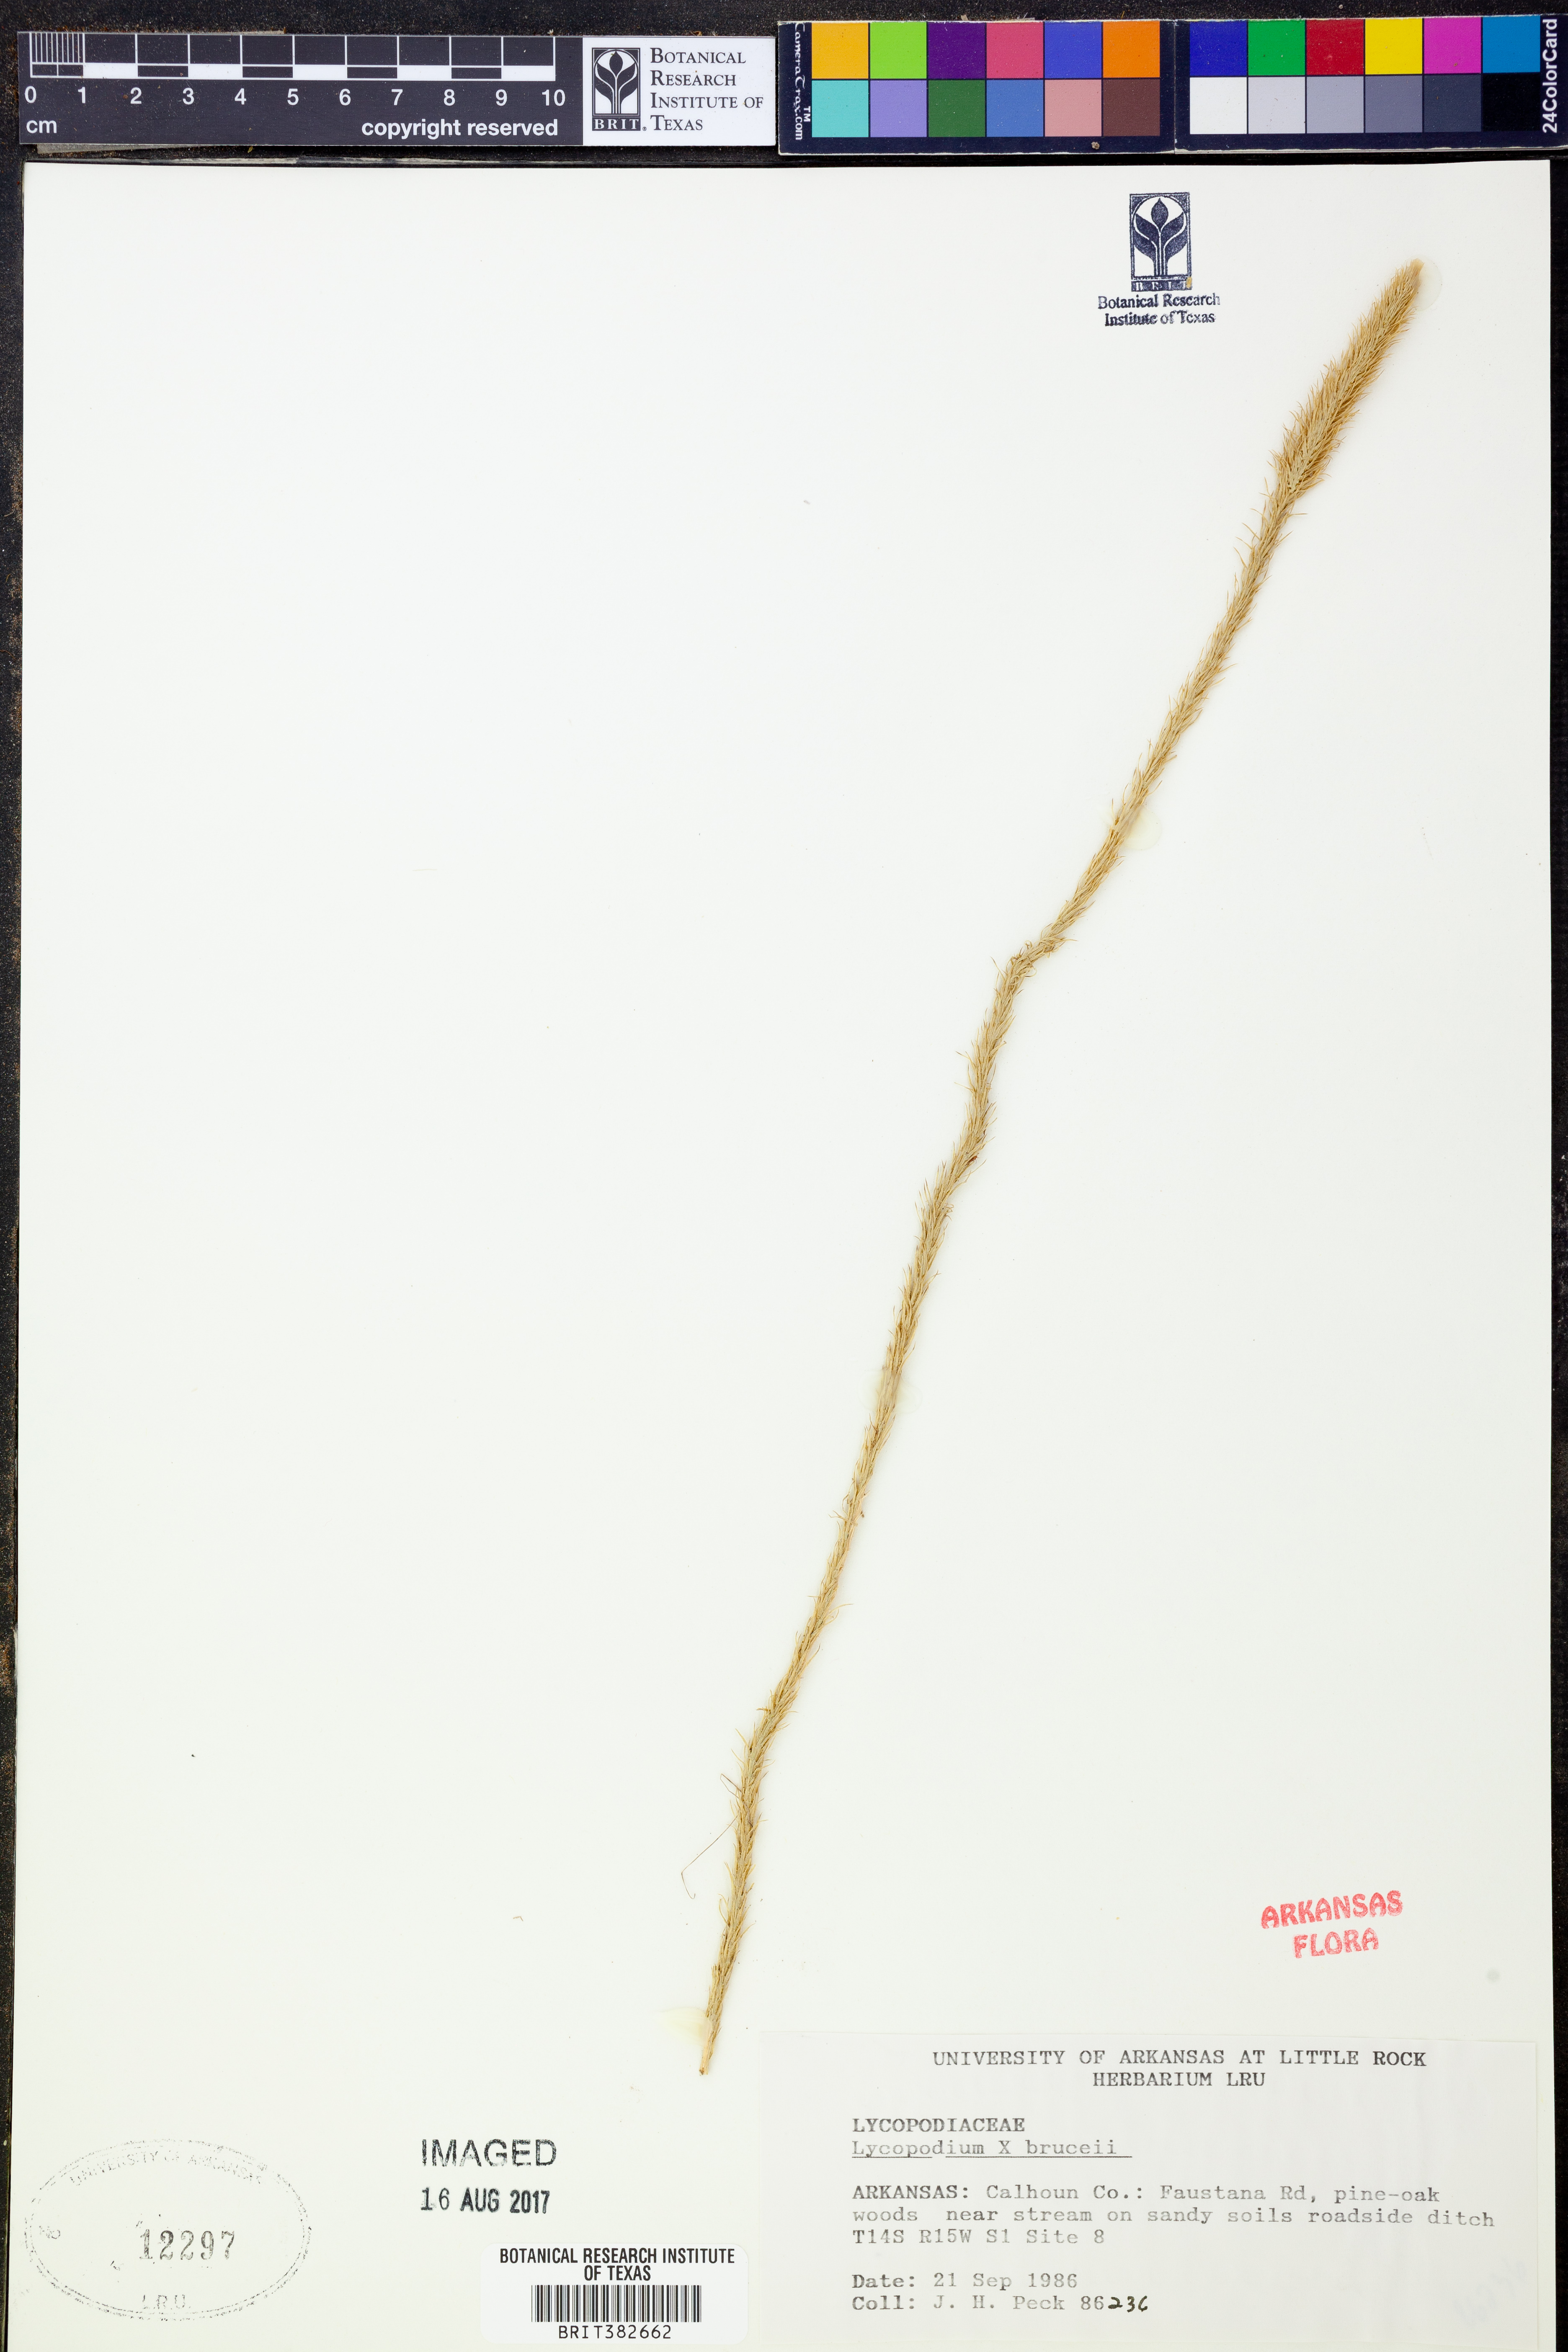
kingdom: Plantae
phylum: Tracheophyta
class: Lycopodiopsida
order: Lycopodiales
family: Lycopodiaceae
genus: Lycopodiella
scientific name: Lycopodiella brucei
